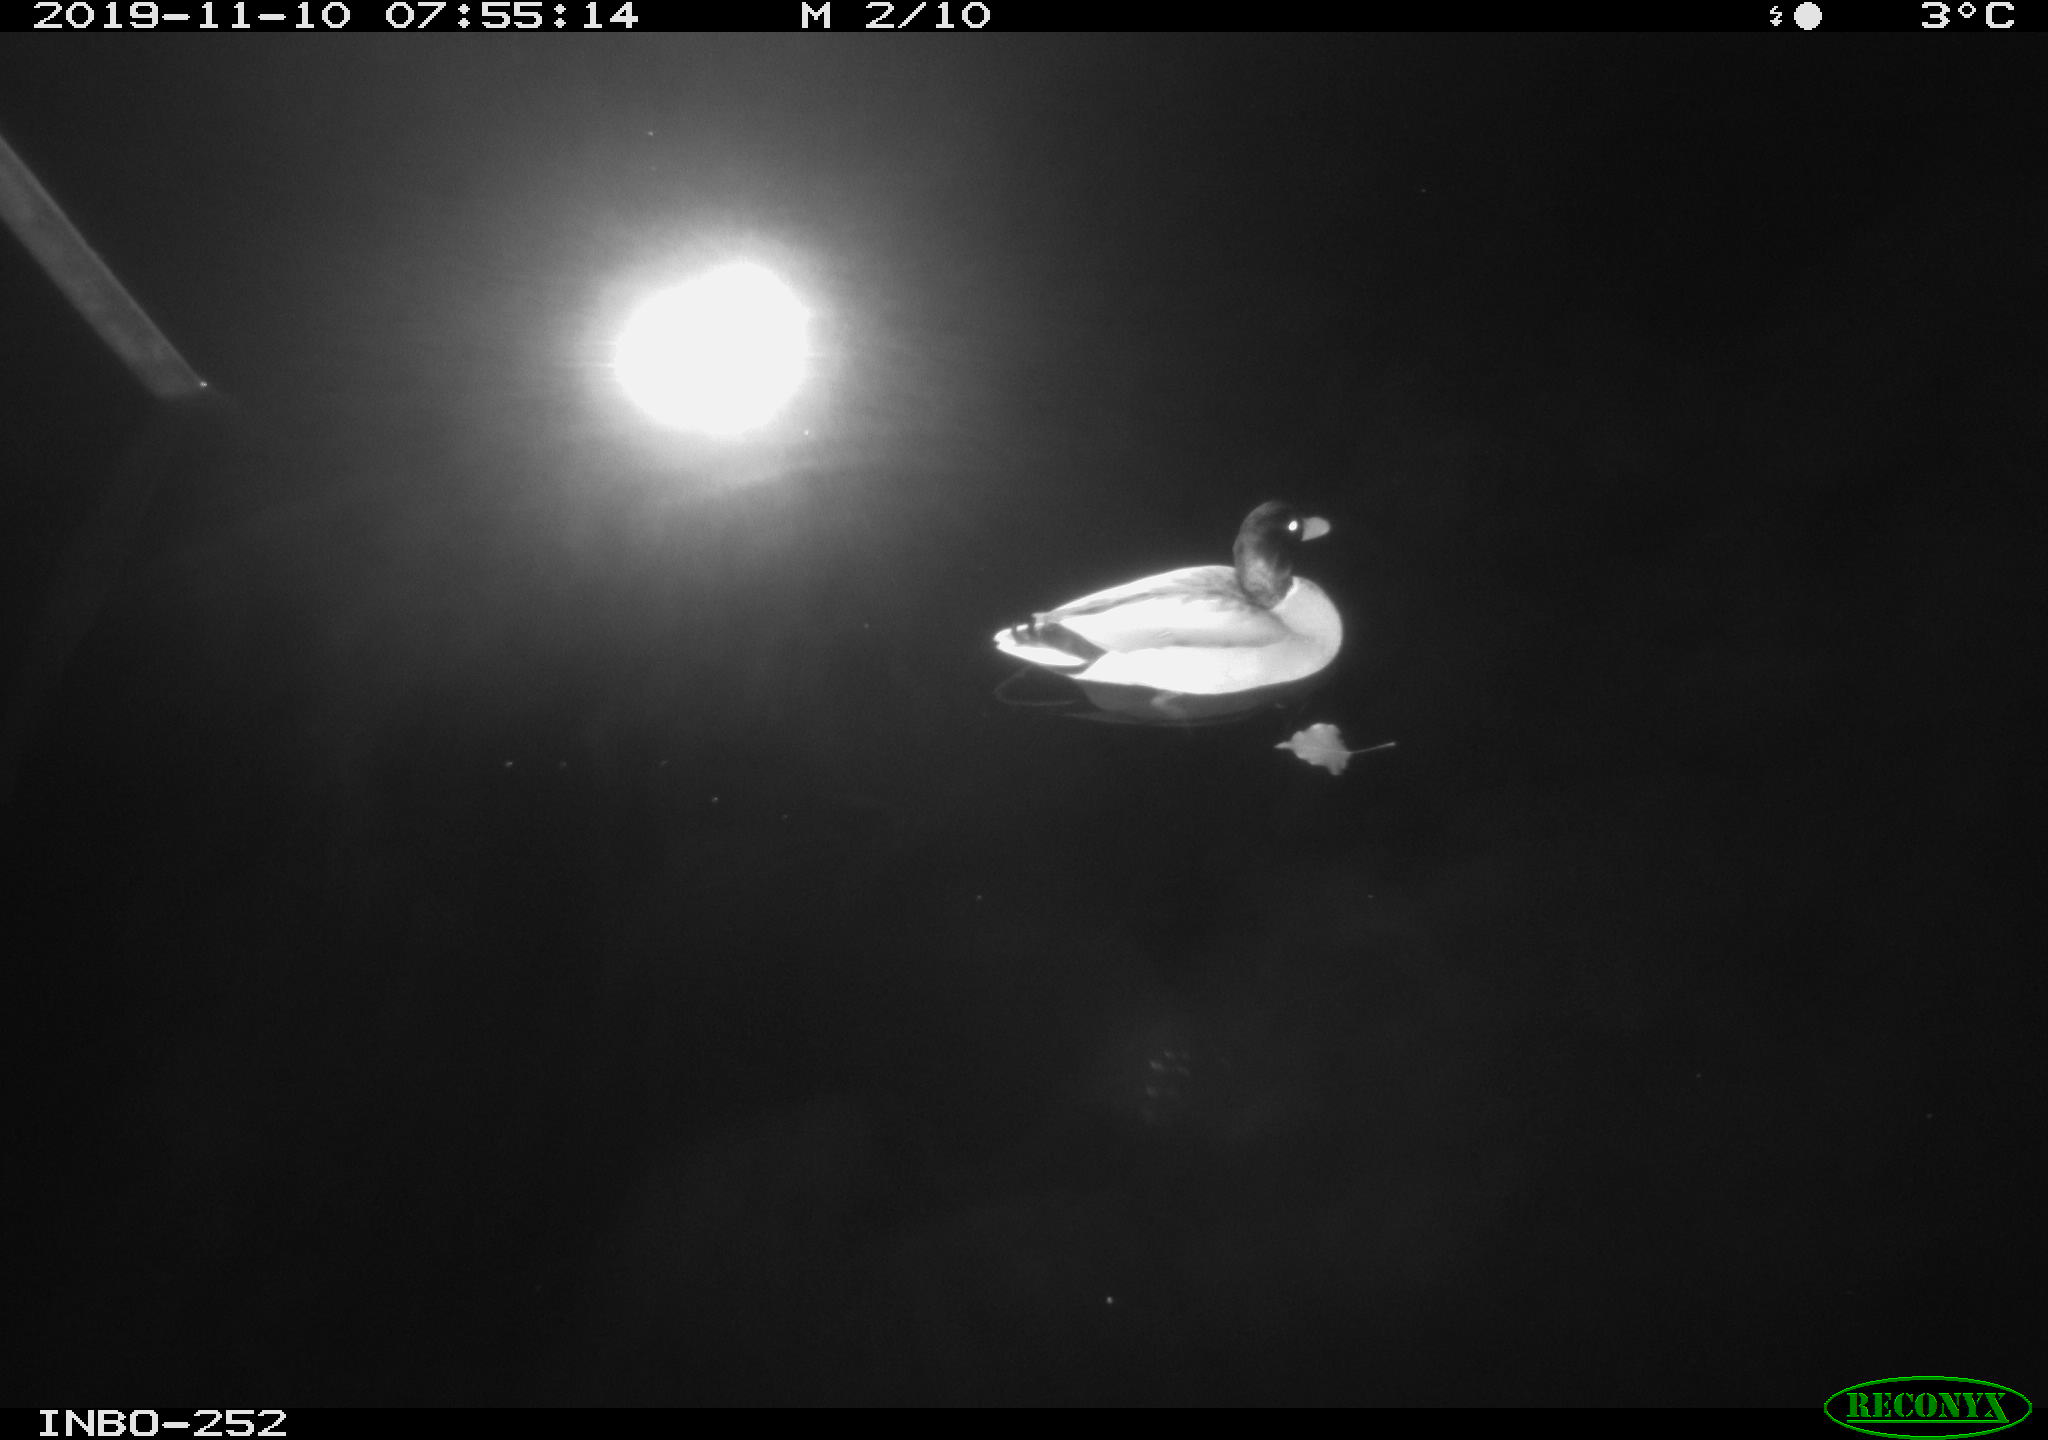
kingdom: Animalia
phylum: Chordata
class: Aves
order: Anseriformes
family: Anatidae
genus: Anas
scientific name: Anas platyrhynchos
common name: Mallard
